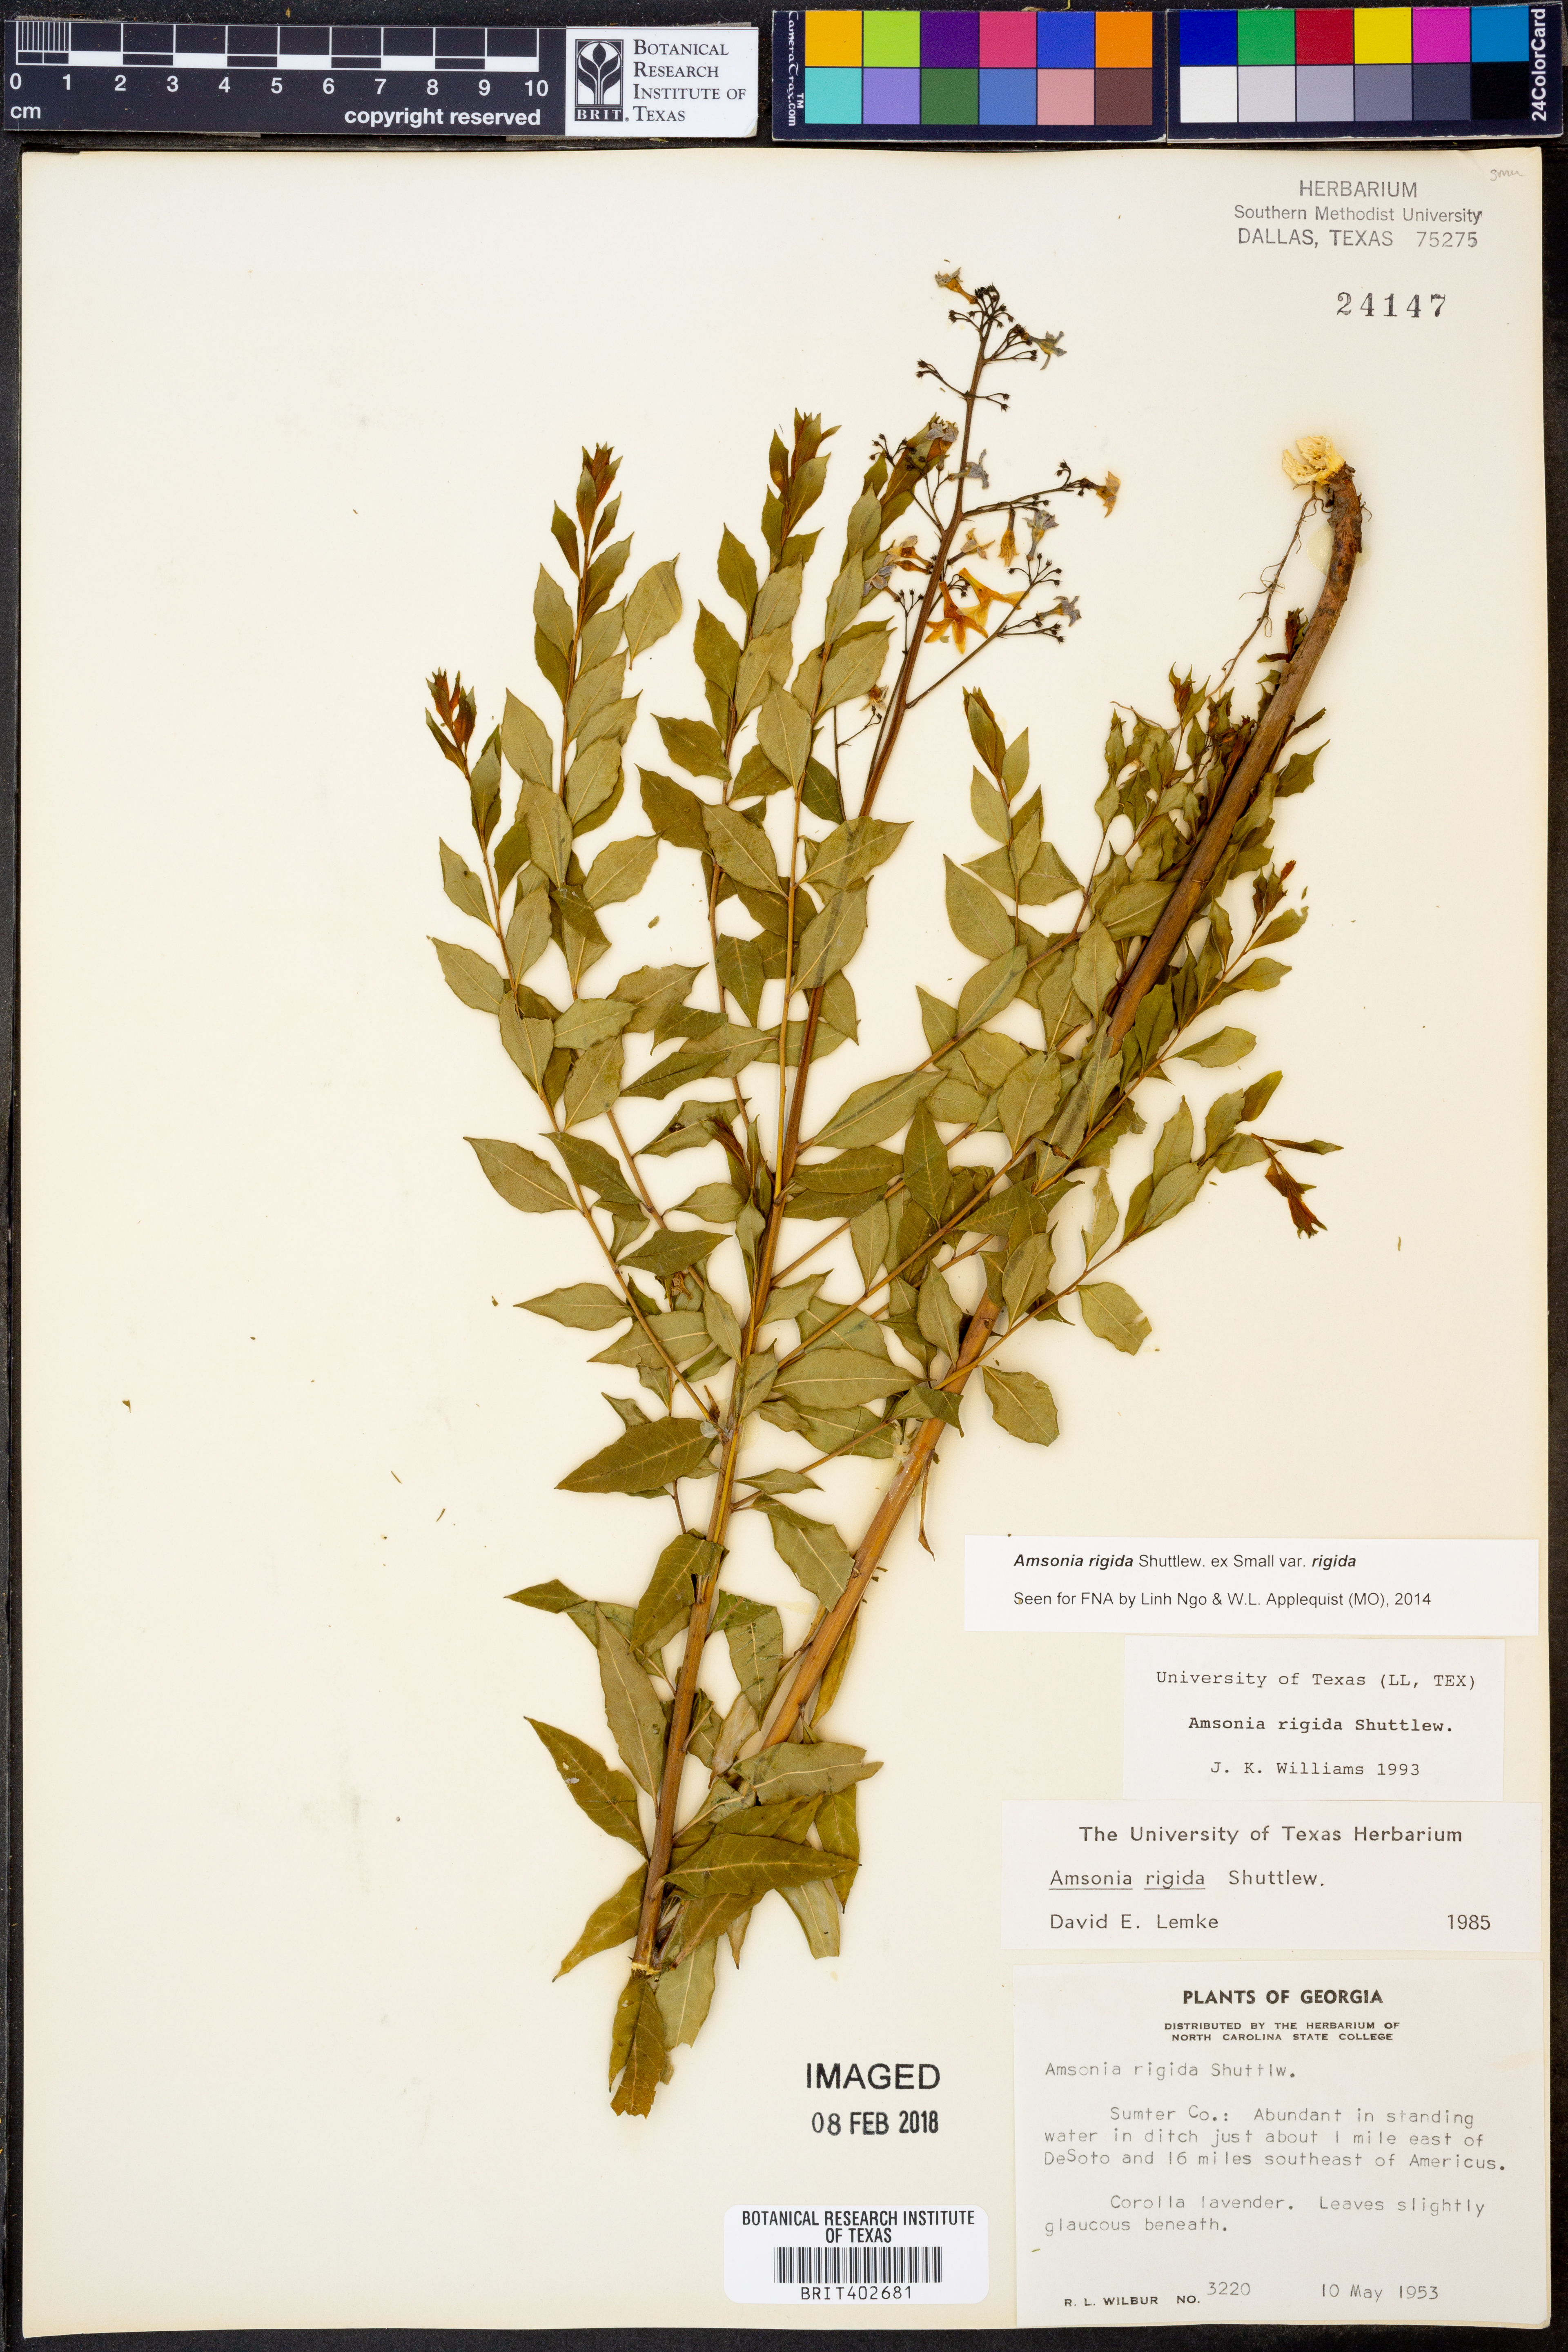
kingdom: Plantae
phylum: Tracheophyta
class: Magnoliopsida
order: Gentianales
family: Apocynaceae
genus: Amsonia
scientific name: Amsonia rigida
